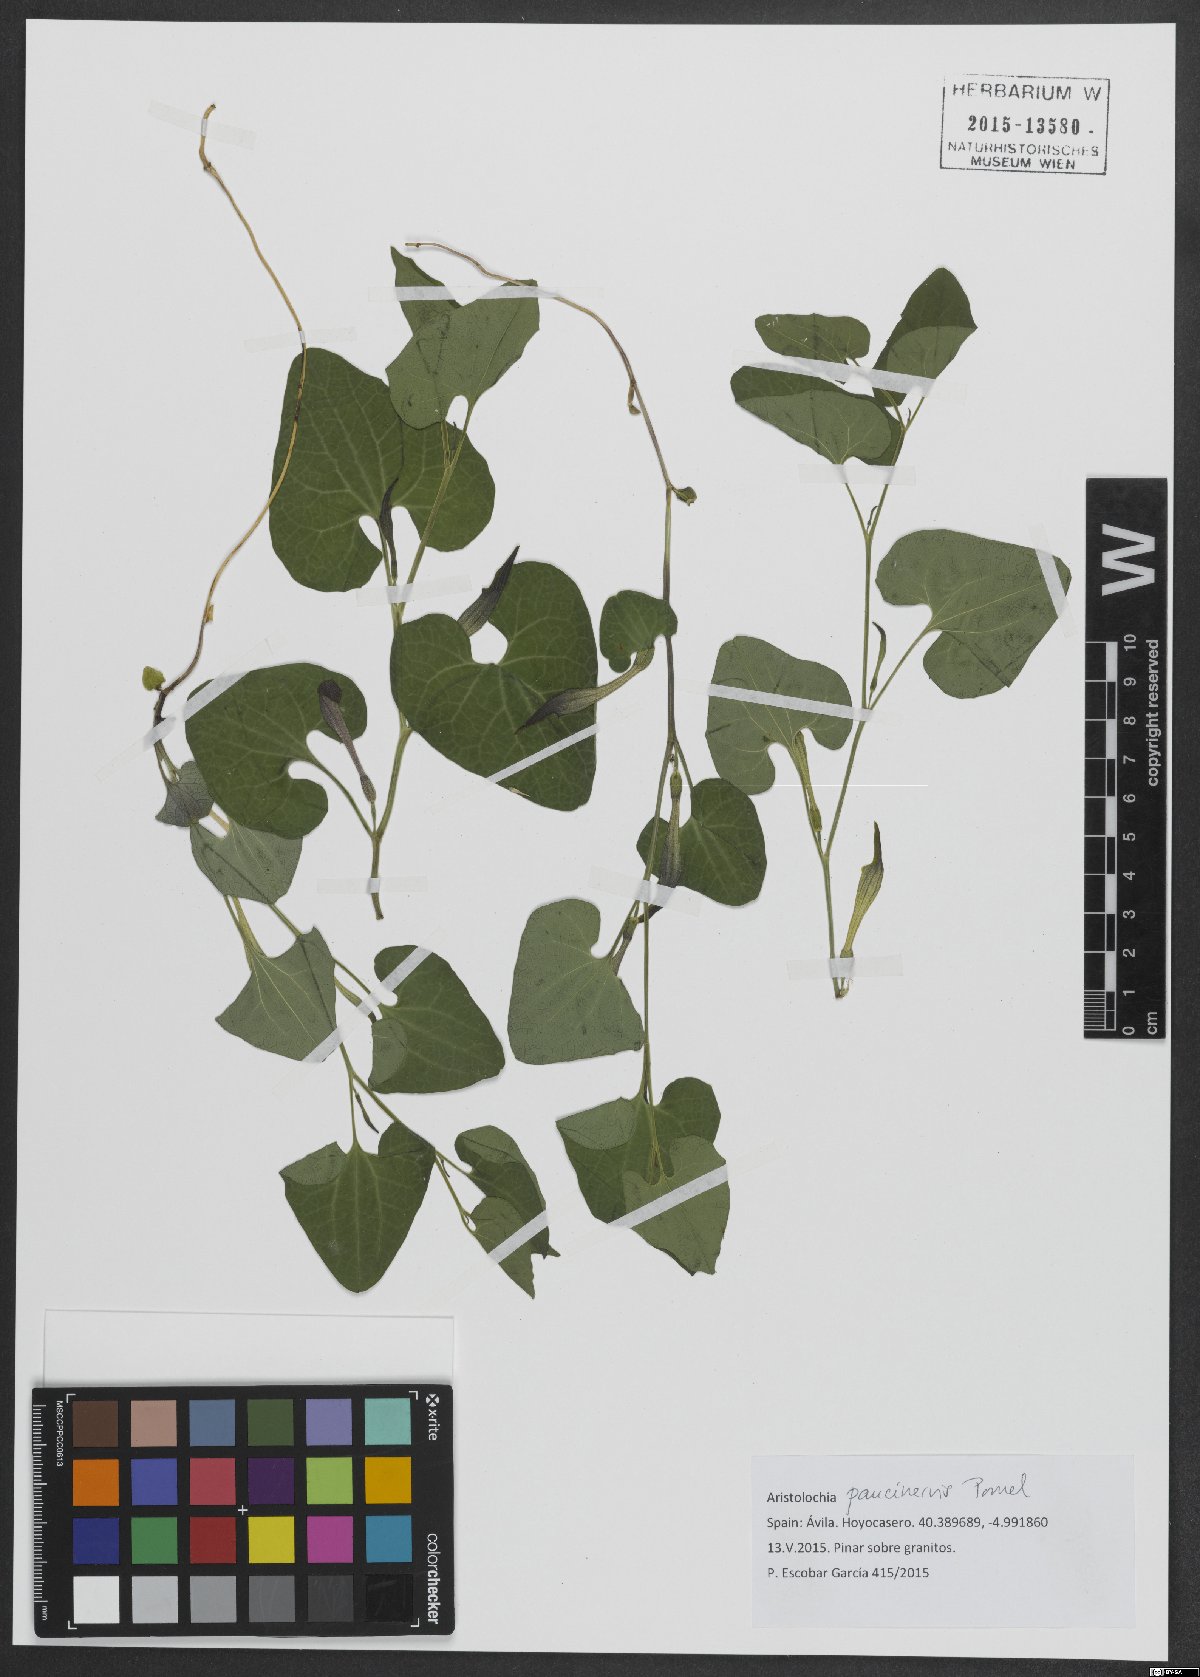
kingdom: Plantae
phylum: Tracheophyta
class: Magnoliopsida
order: Piperales
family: Aristolochiaceae
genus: Aristolochia
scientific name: Aristolochia paucinervis
